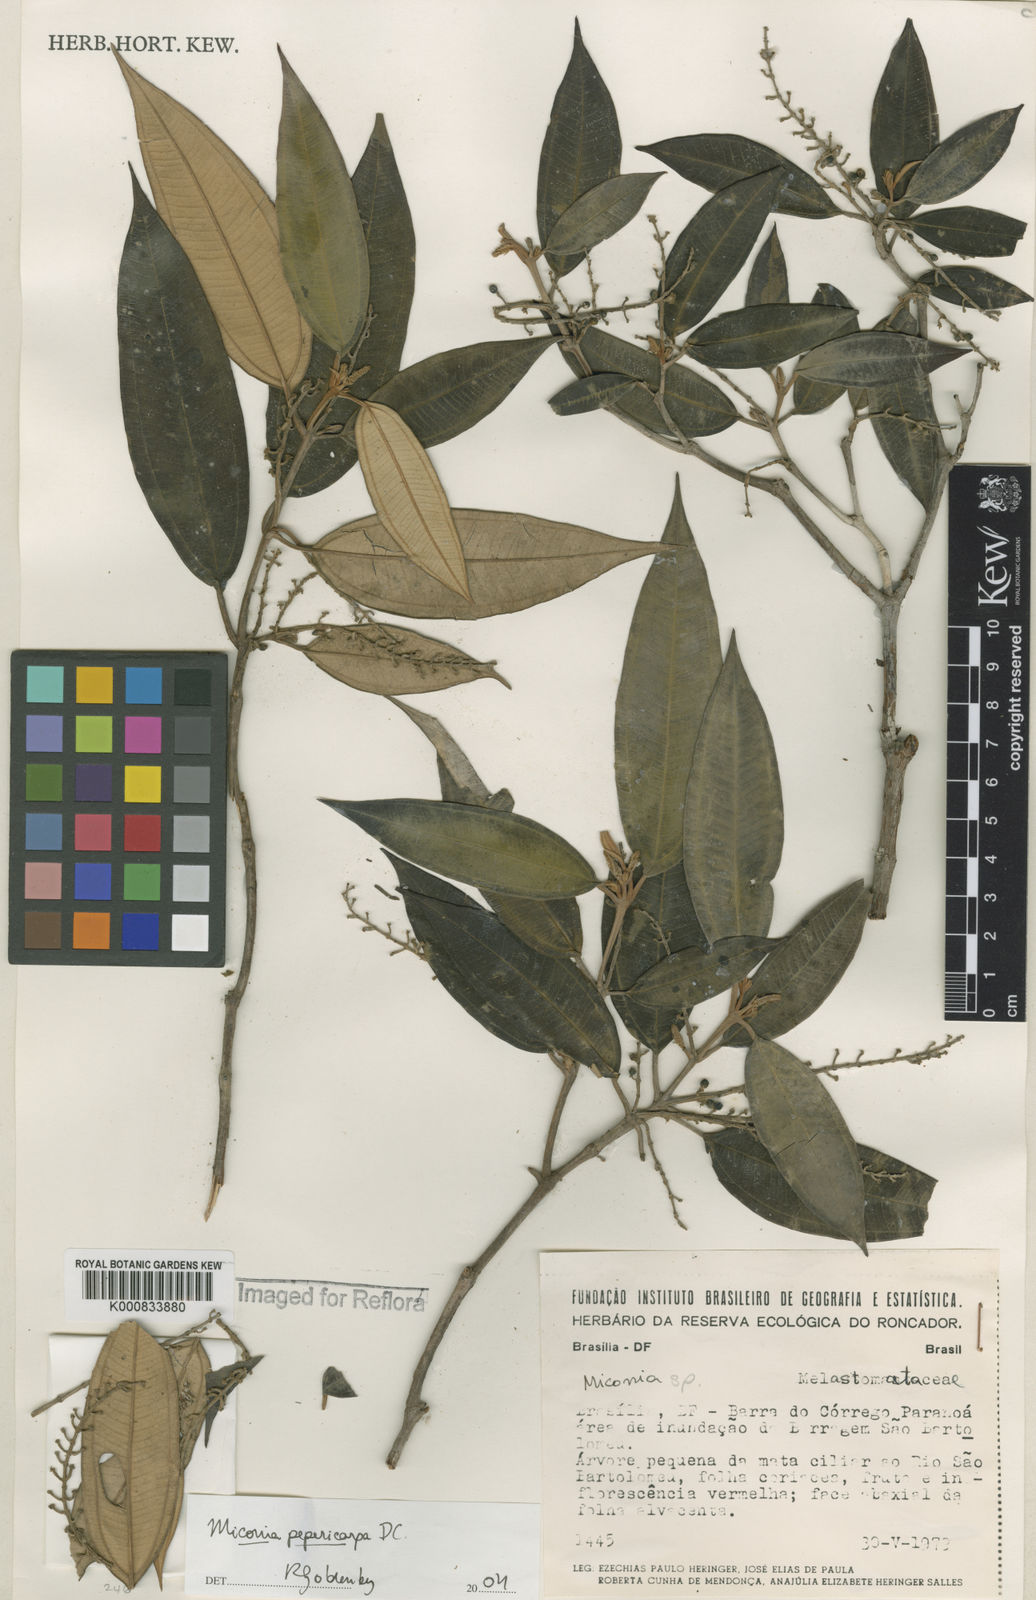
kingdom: Plantae
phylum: Tracheophyta
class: Magnoliopsida
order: Myrtales
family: Melastomataceae
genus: Miconia
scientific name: Miconia pepericarpa
